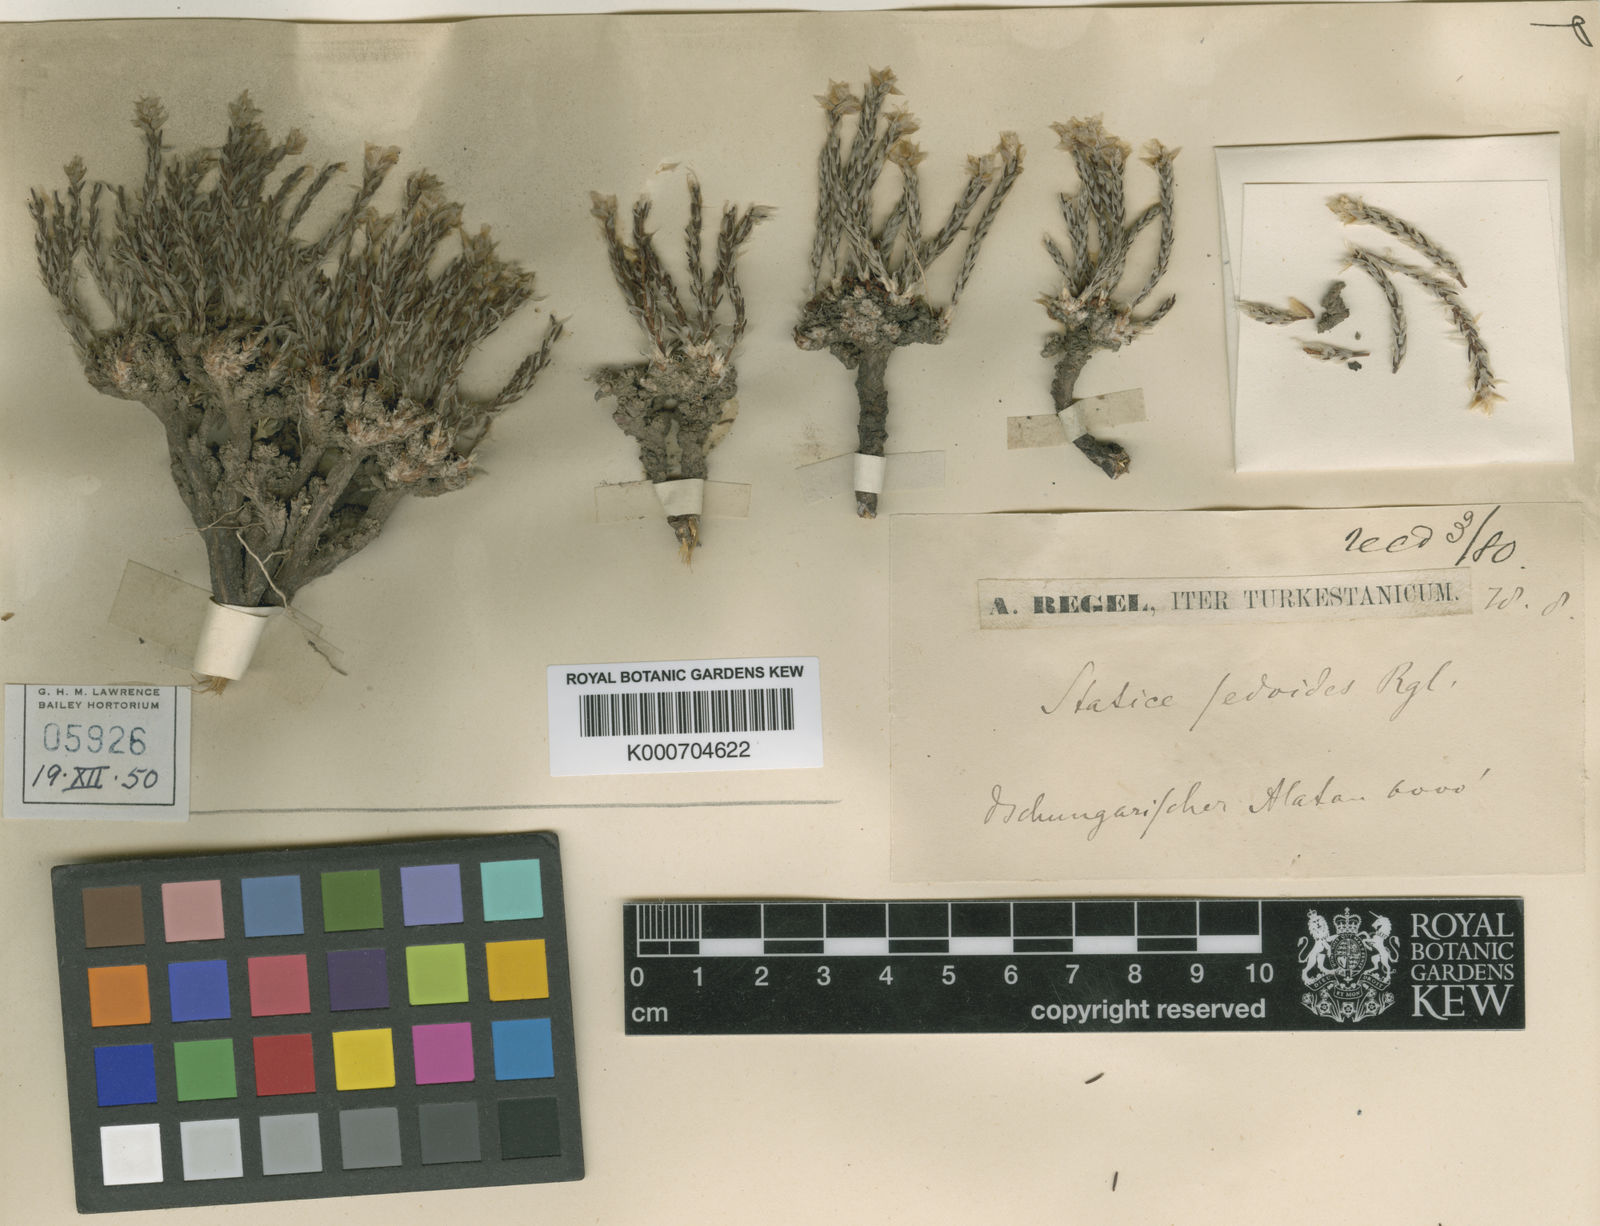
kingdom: Plantae
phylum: Tracheophyta
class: Magnoliopsida
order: Caryophyllales
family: Plumbaginaceae
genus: Limonium
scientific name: Limonium sedodes
